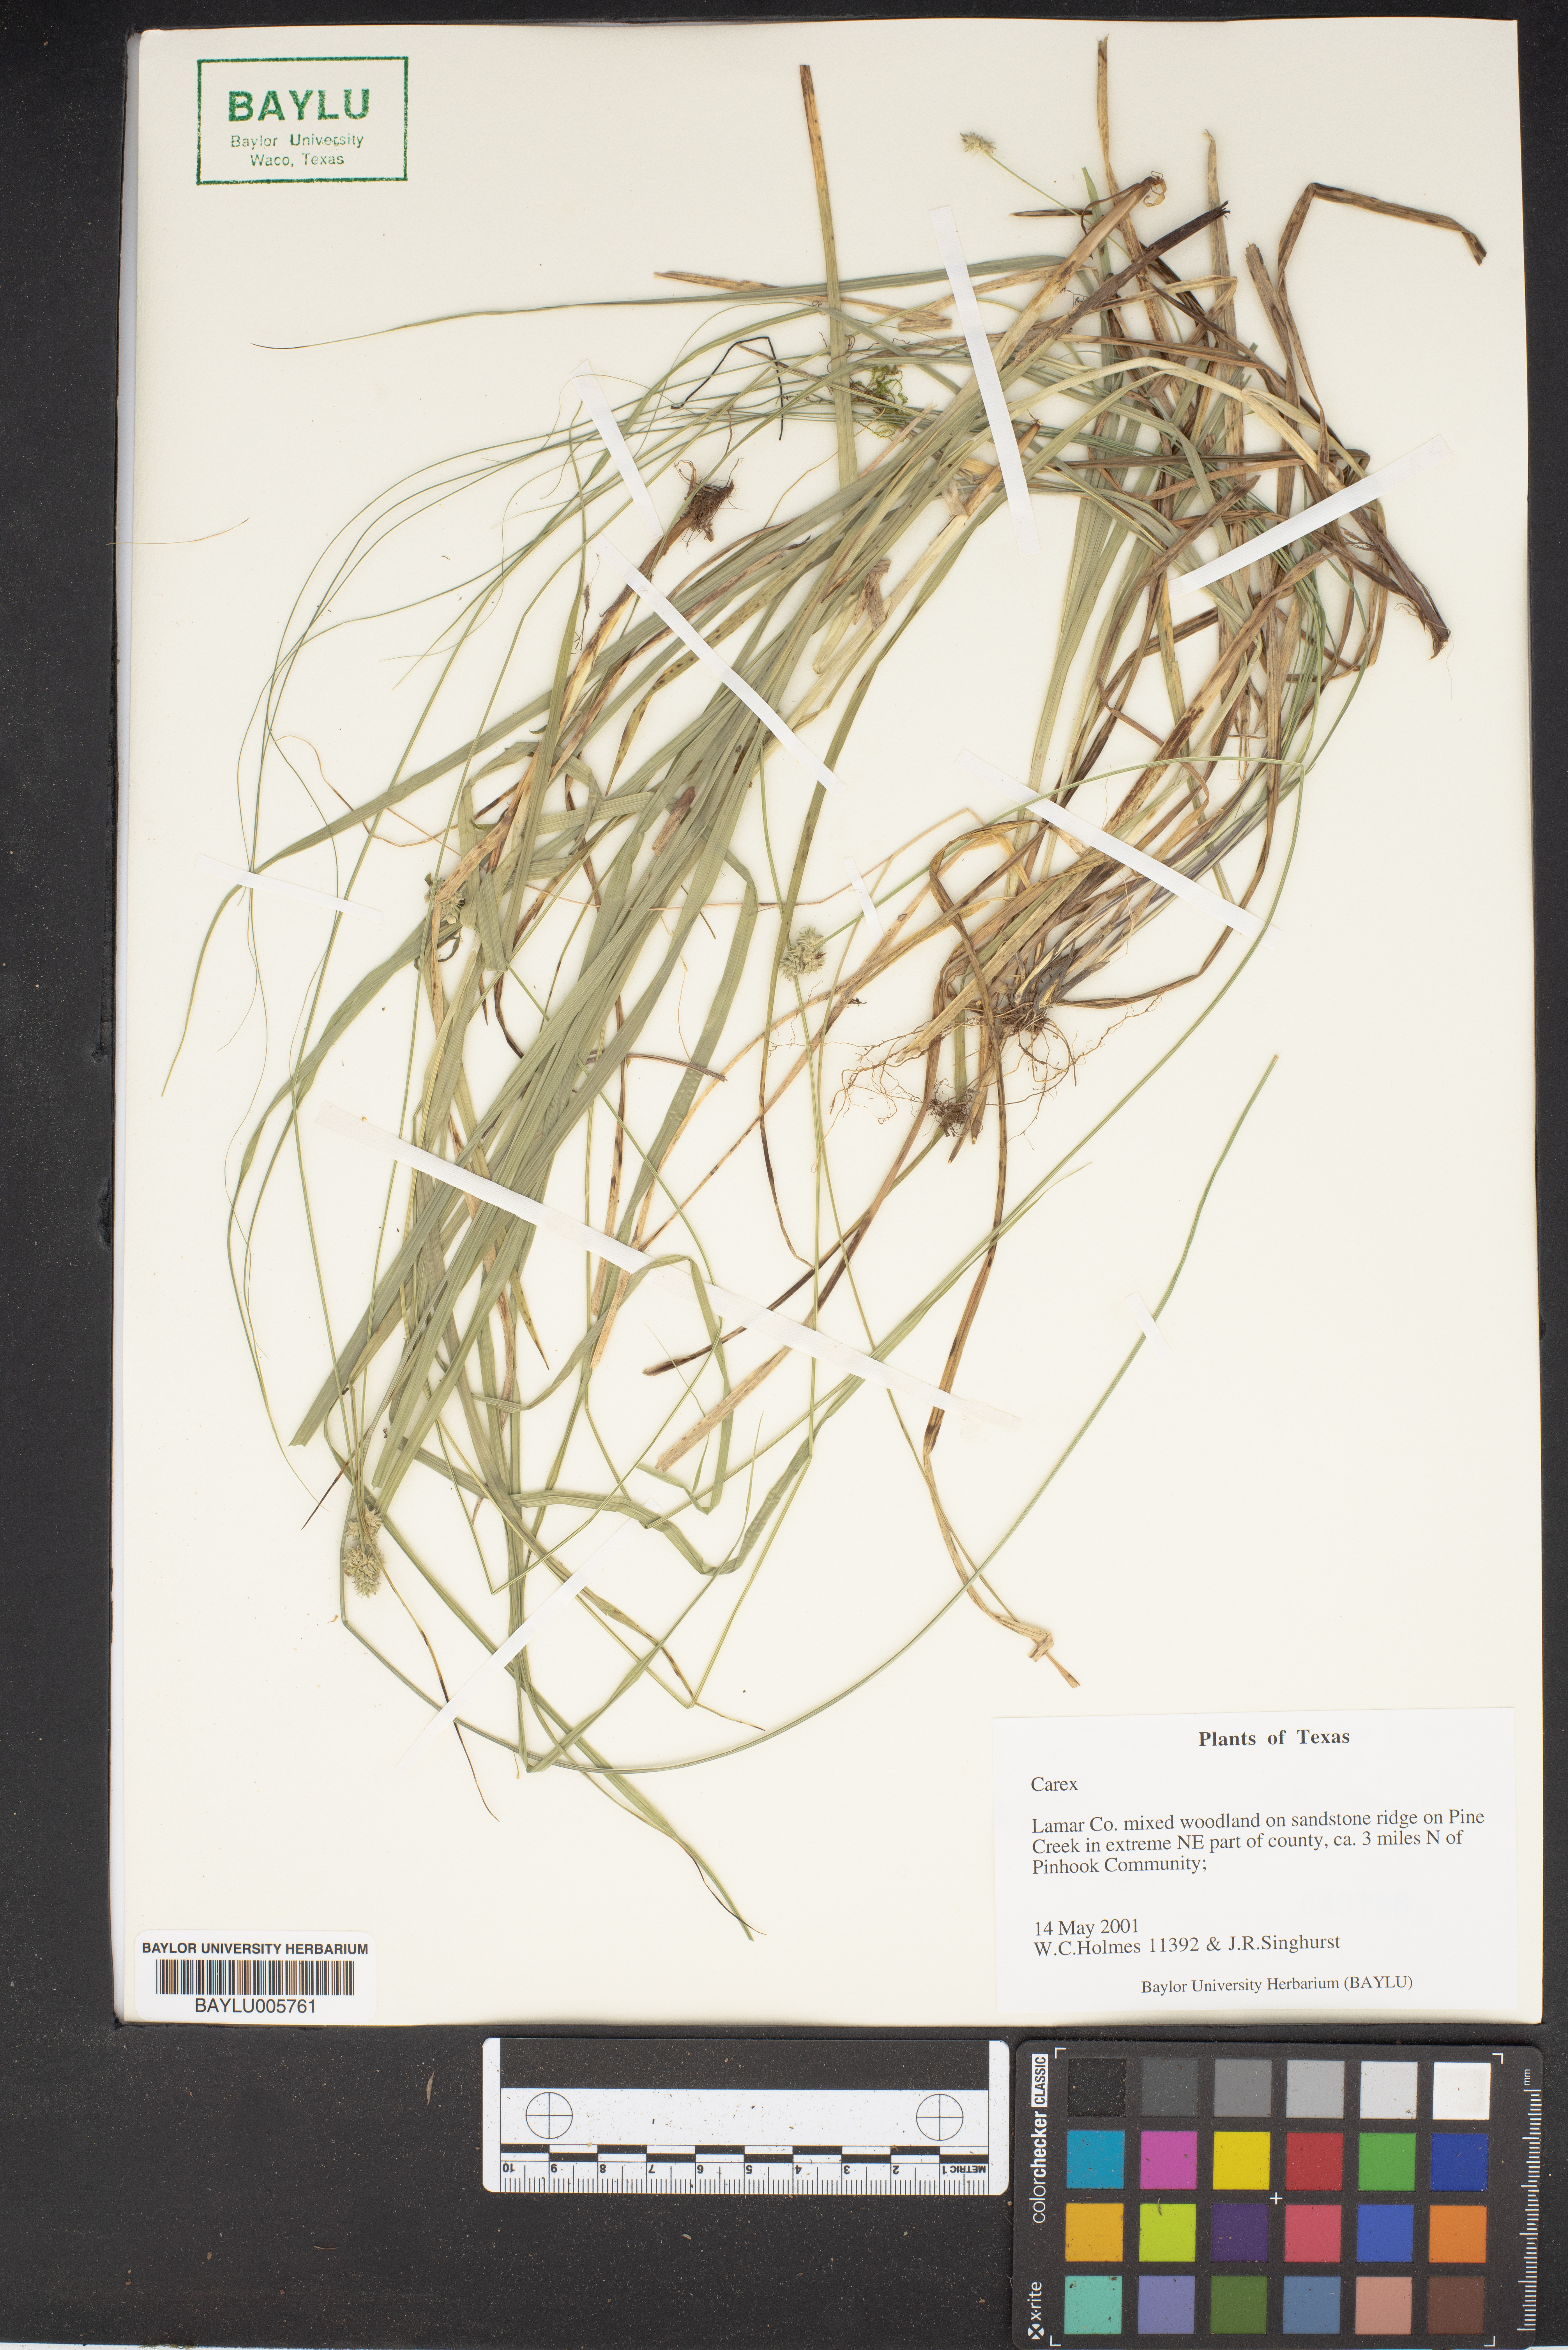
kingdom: Plantae
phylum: Tracheophyta
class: Liliopsida
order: Poales
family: Cyperaceae
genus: Carex
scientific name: Carex
